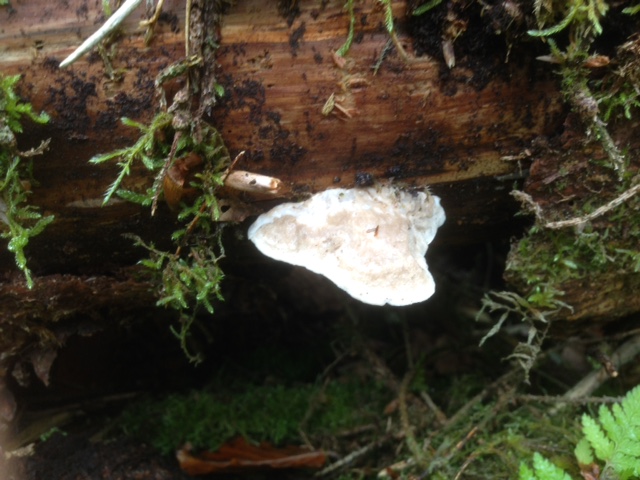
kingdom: Fungi
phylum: Basidiomycota
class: Agaricomycetes
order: Polyporales
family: Incrustoporiaceae
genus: Tyromyces
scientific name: Tyromyces lacteus
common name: mælkehvid kødporesvamp
